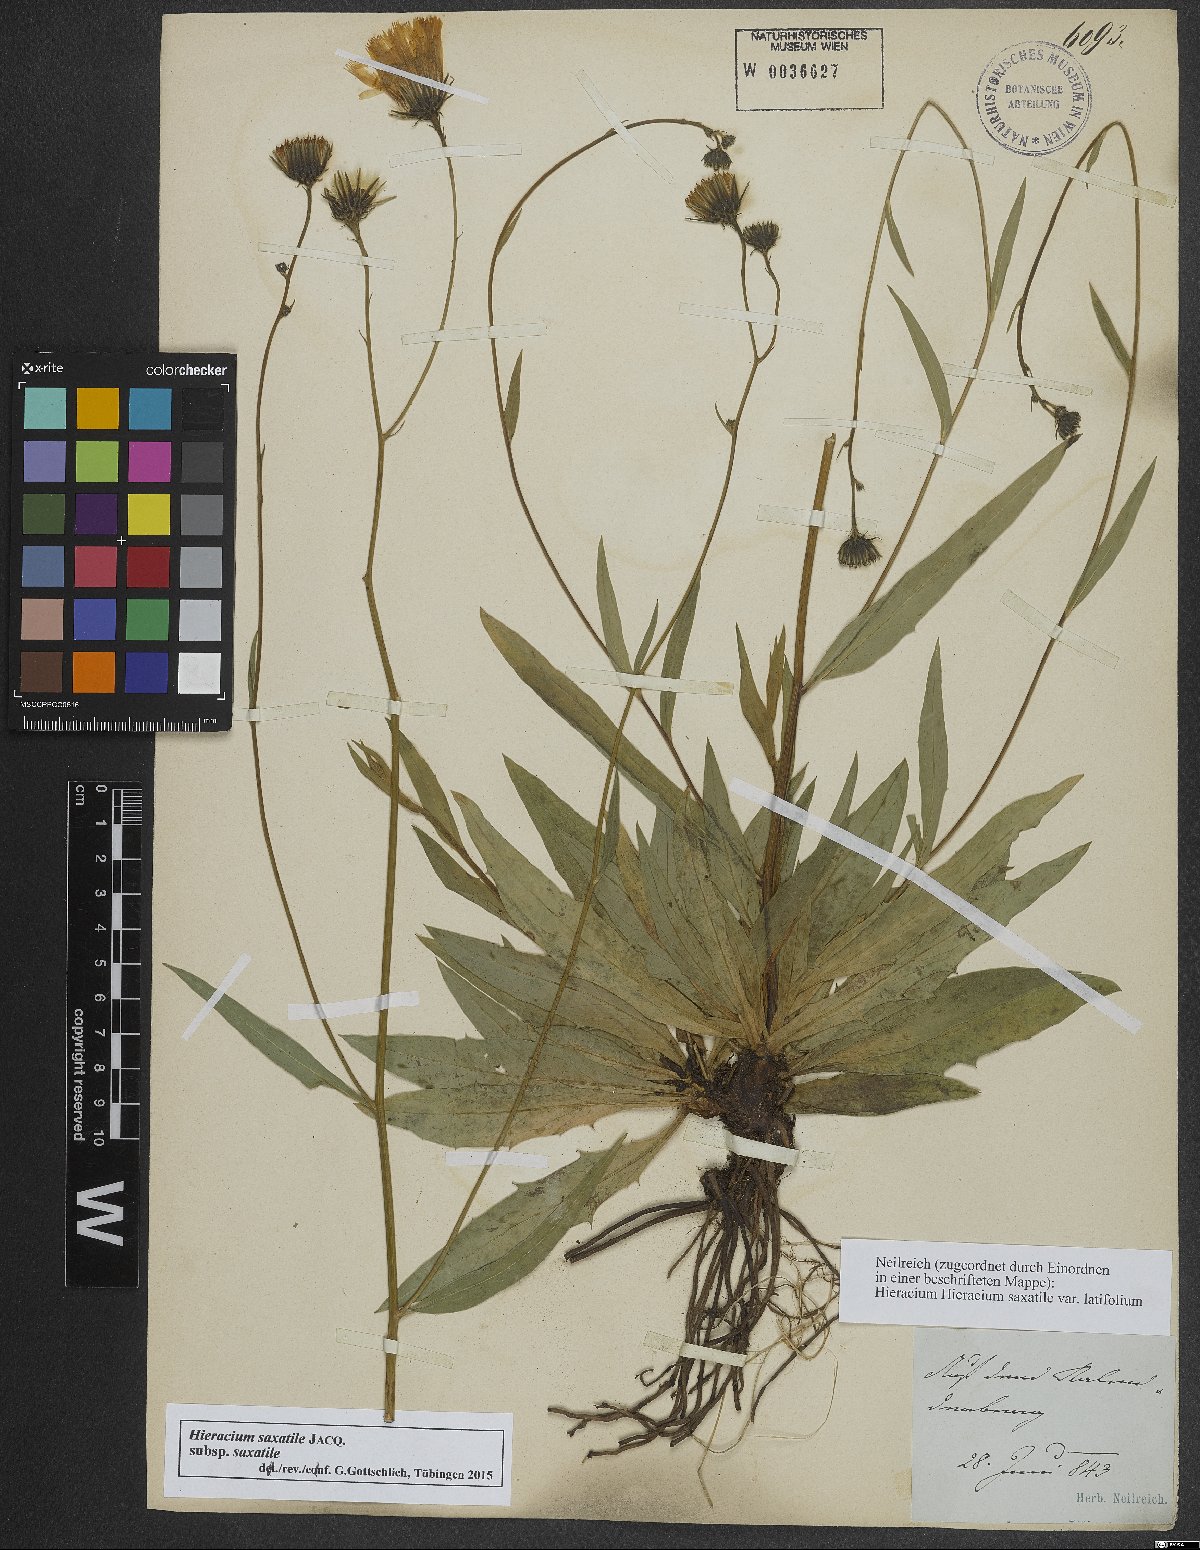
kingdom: Plantae
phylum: Tracheophyta
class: Magnoliopsida
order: Asterales
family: Asteraceae
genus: Hieracium
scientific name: Hieracium saxatile
